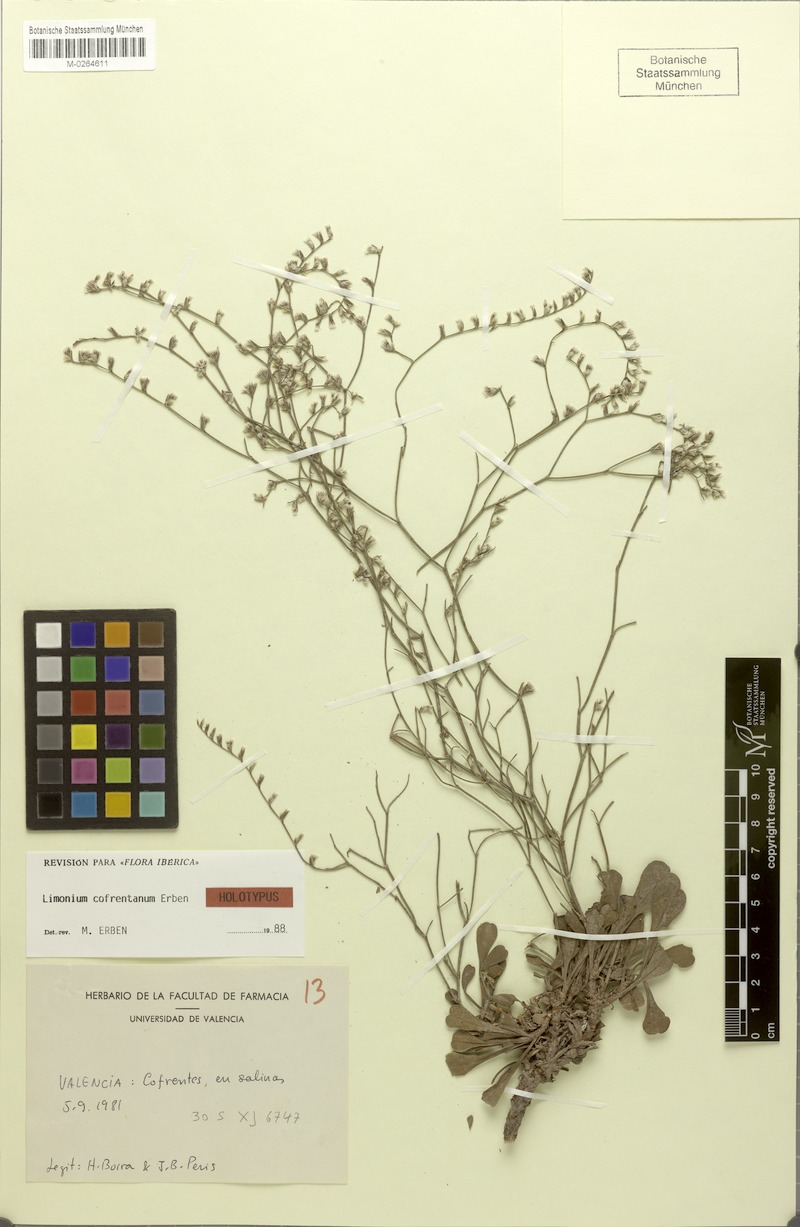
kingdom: Plantae
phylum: Tracheophyta
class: Magnoliopsida
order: Caryophyllales
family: Plumbaginaceae
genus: Limonium
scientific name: Limonium cofrentanum
